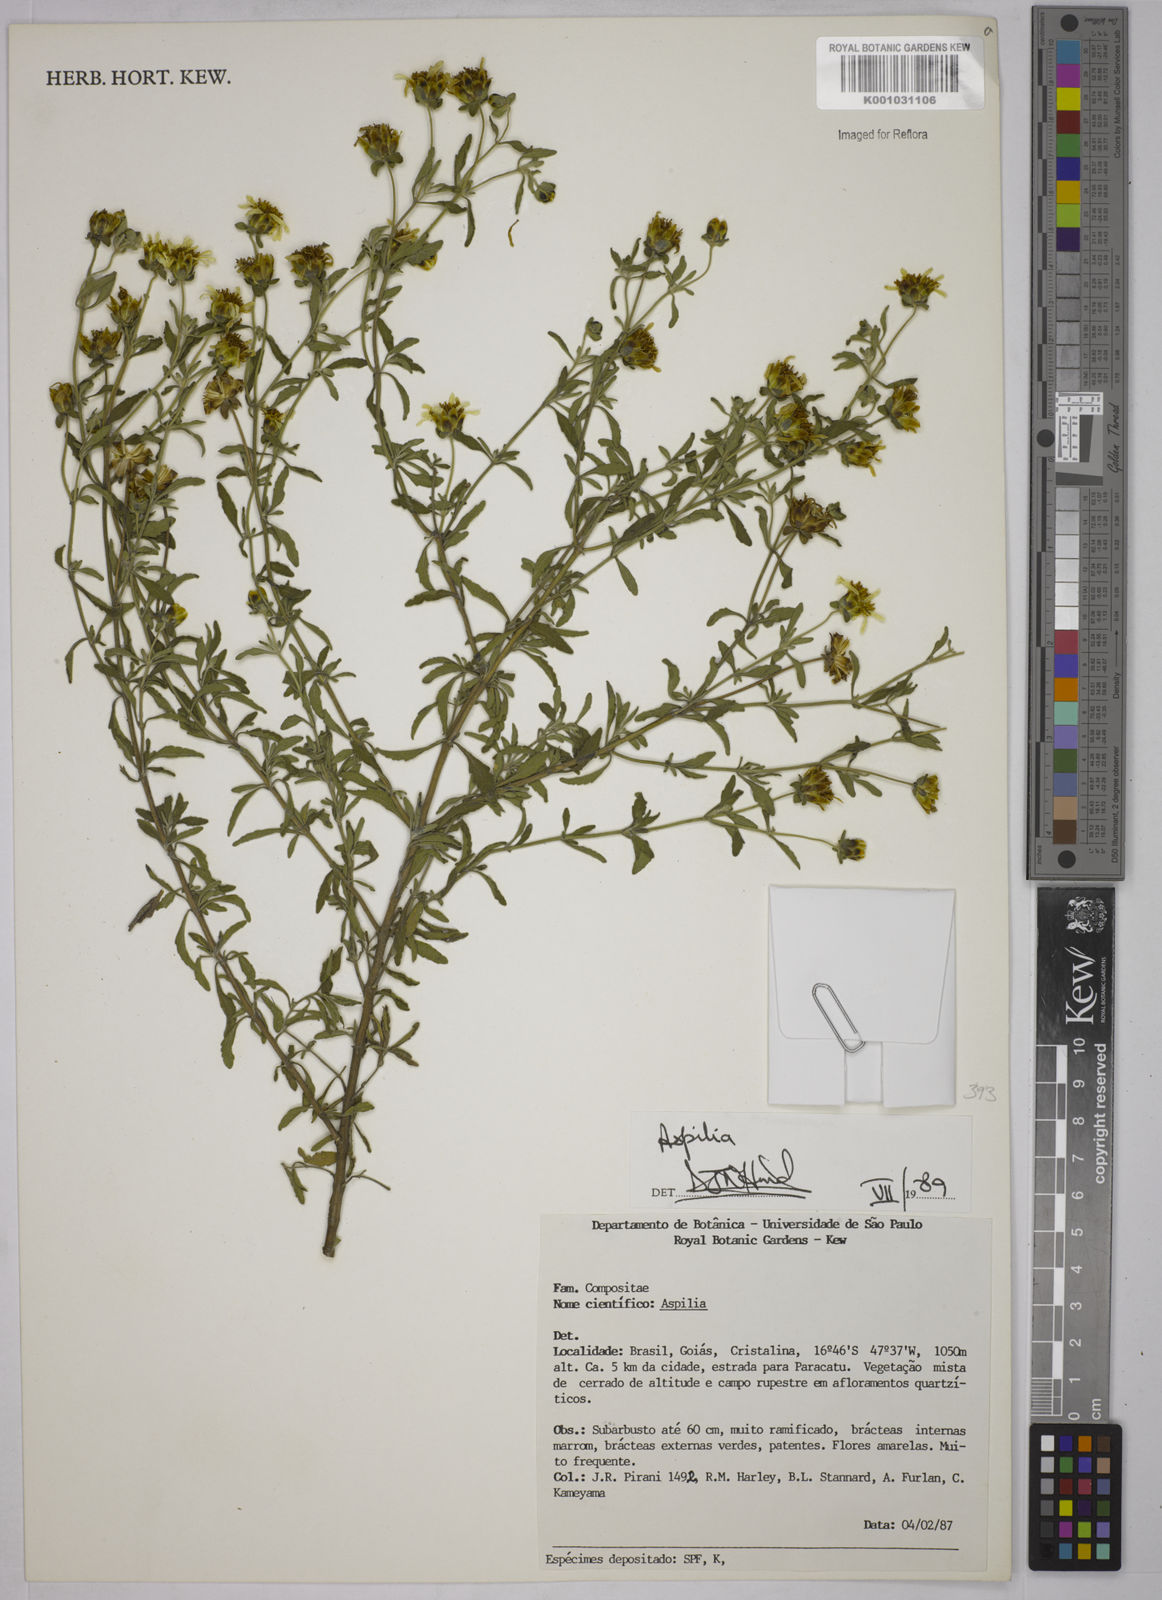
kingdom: Plantae
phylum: Tracheophyta
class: Magnoliopsida
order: Asterales
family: Asteraceae
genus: Aspilia
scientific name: Aspilia
